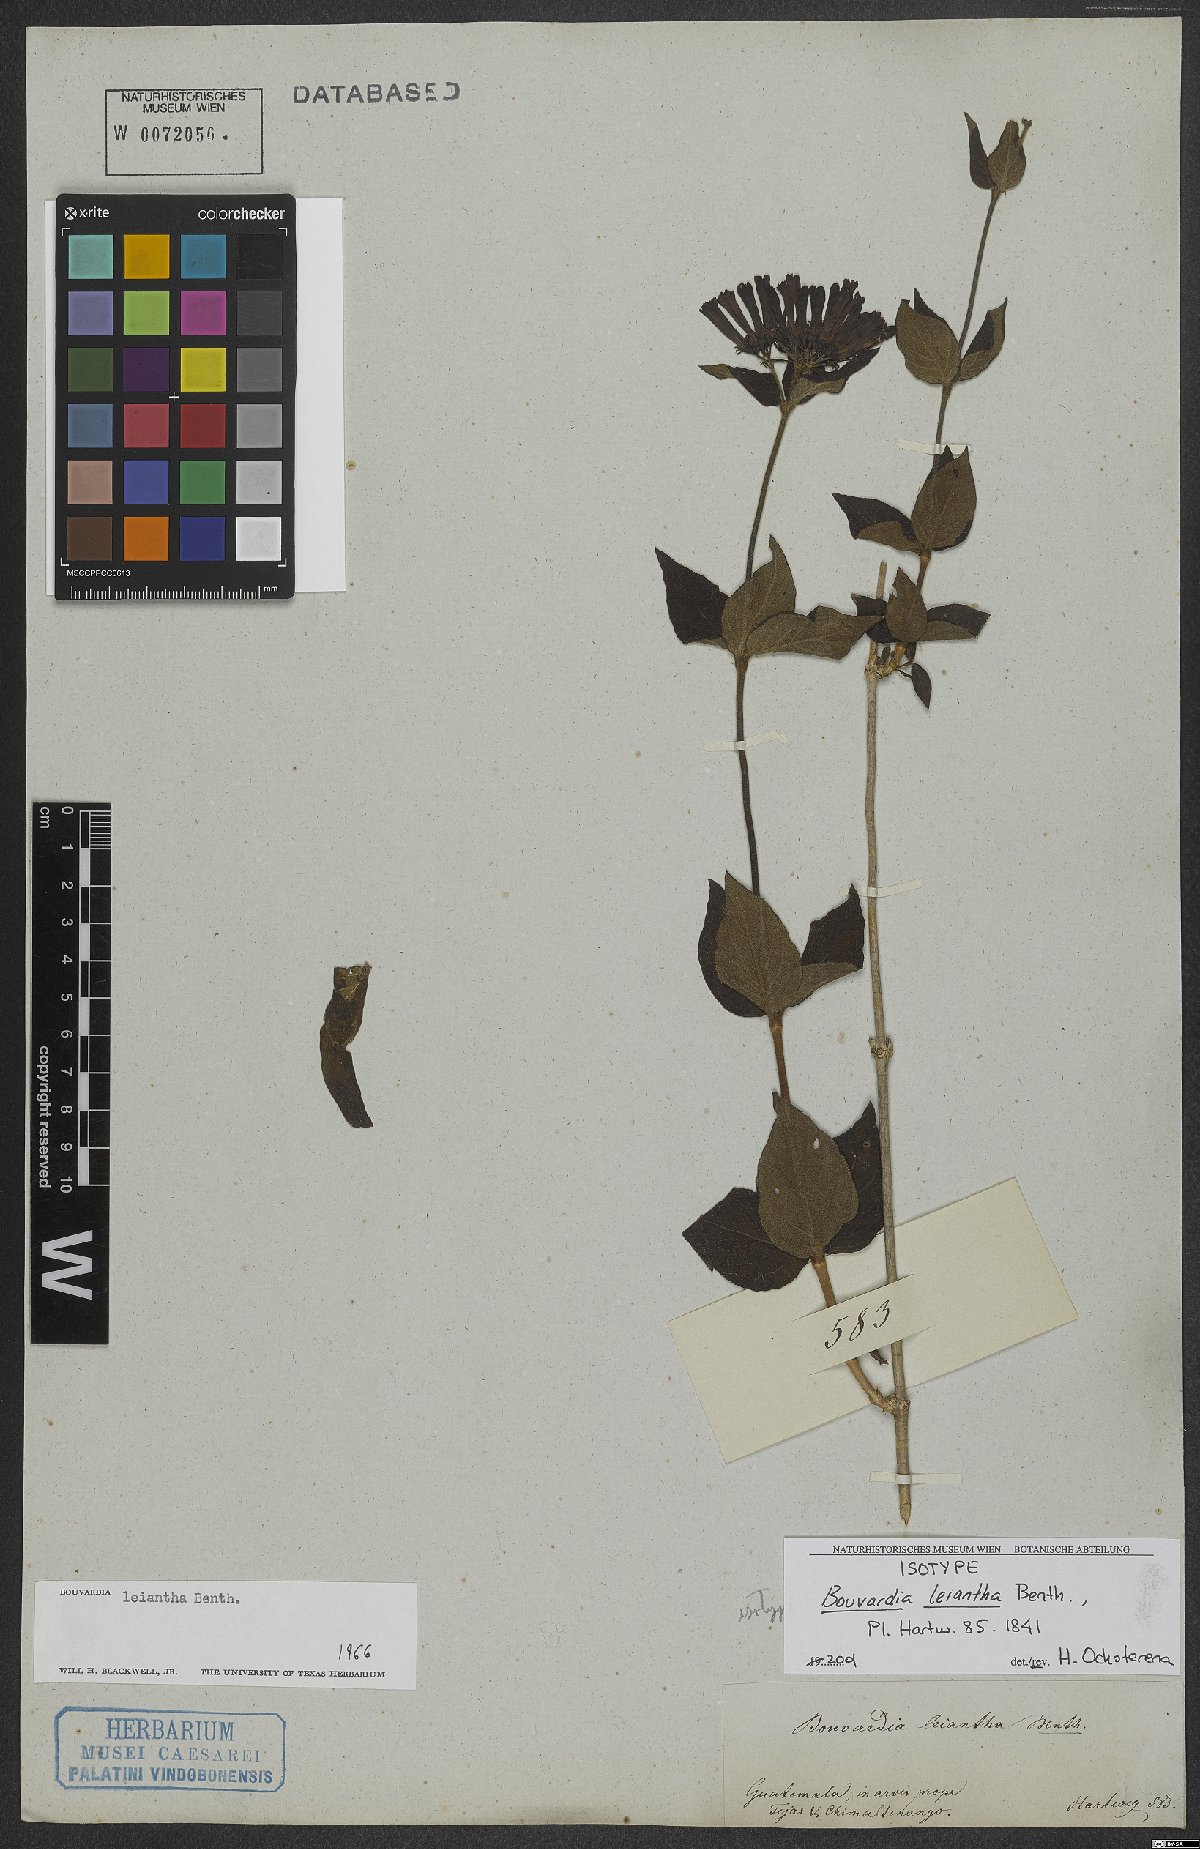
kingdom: Plantae
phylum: Tracheophyta
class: Magnoliopsida
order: Gentianales
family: Rubiaceae
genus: Bouvardia
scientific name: Bouvardia leiantha
